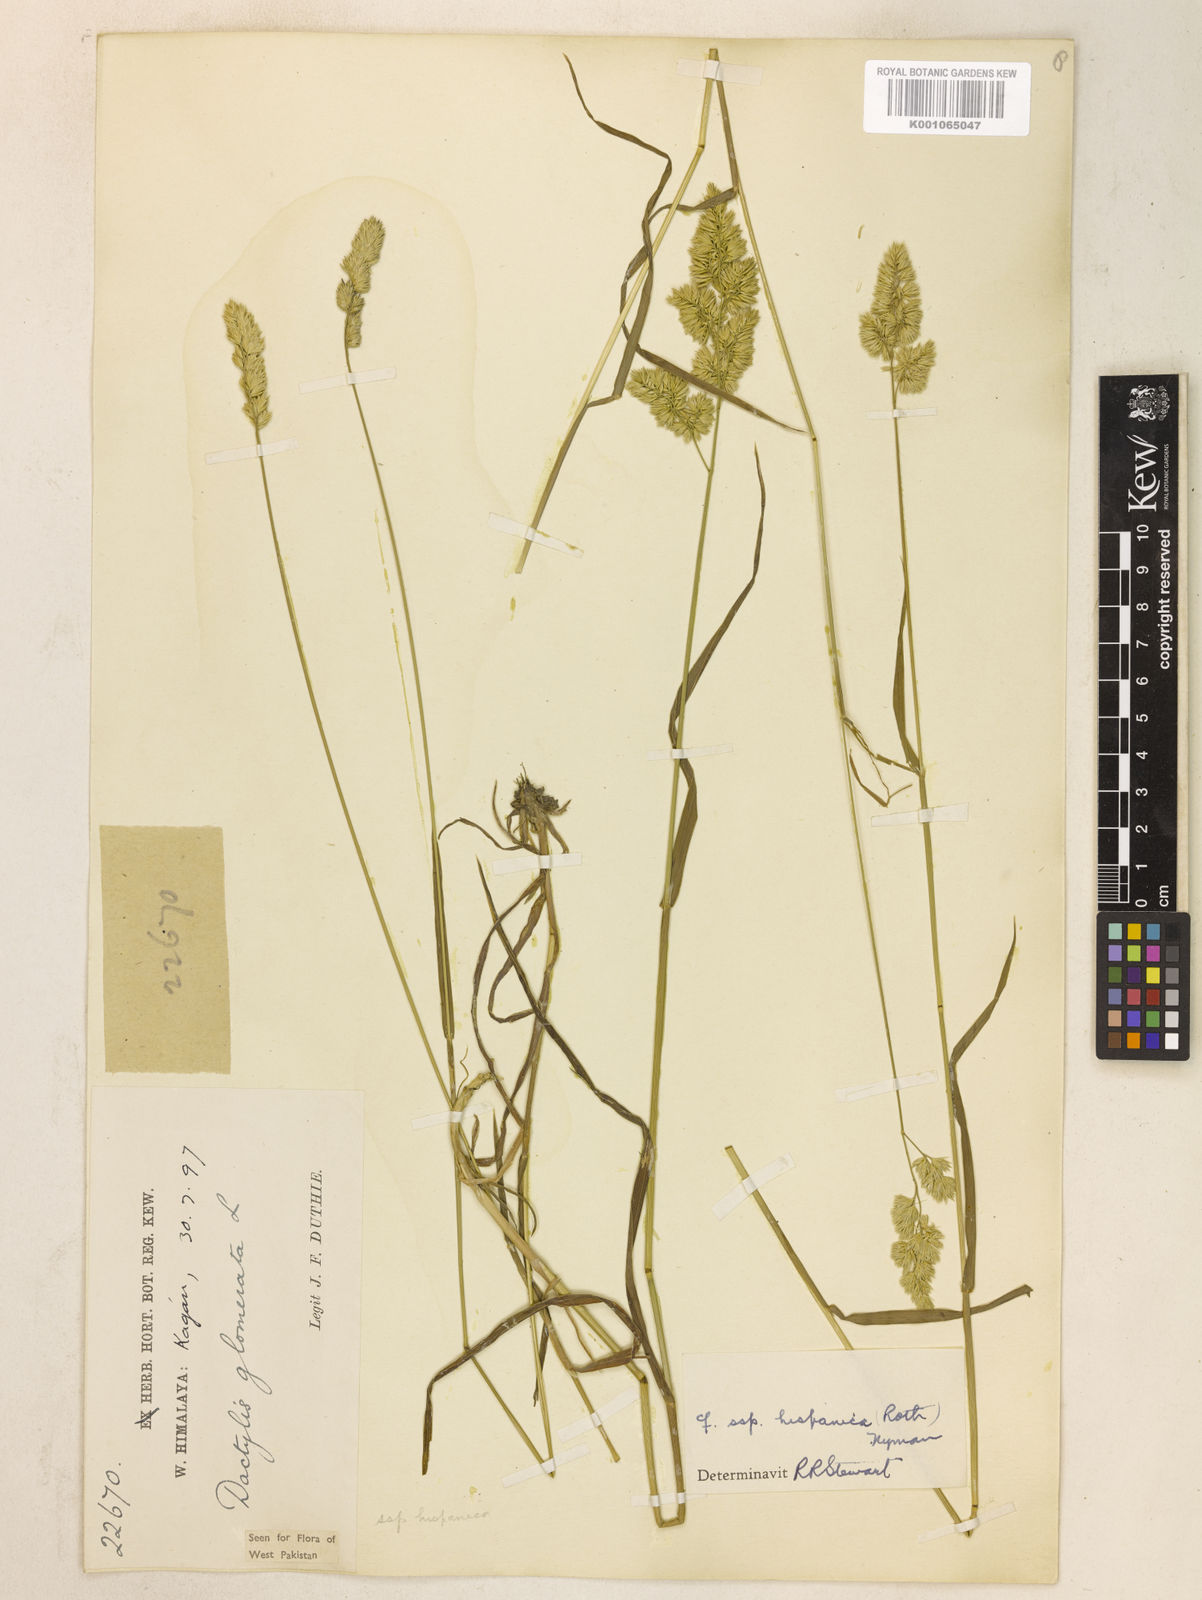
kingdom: Plantae
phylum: Tracheophyta
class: Liliopsida
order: Poales
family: Poaceae
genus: Dactylis
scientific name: Dactylis glomerata
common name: Orchardgrass
